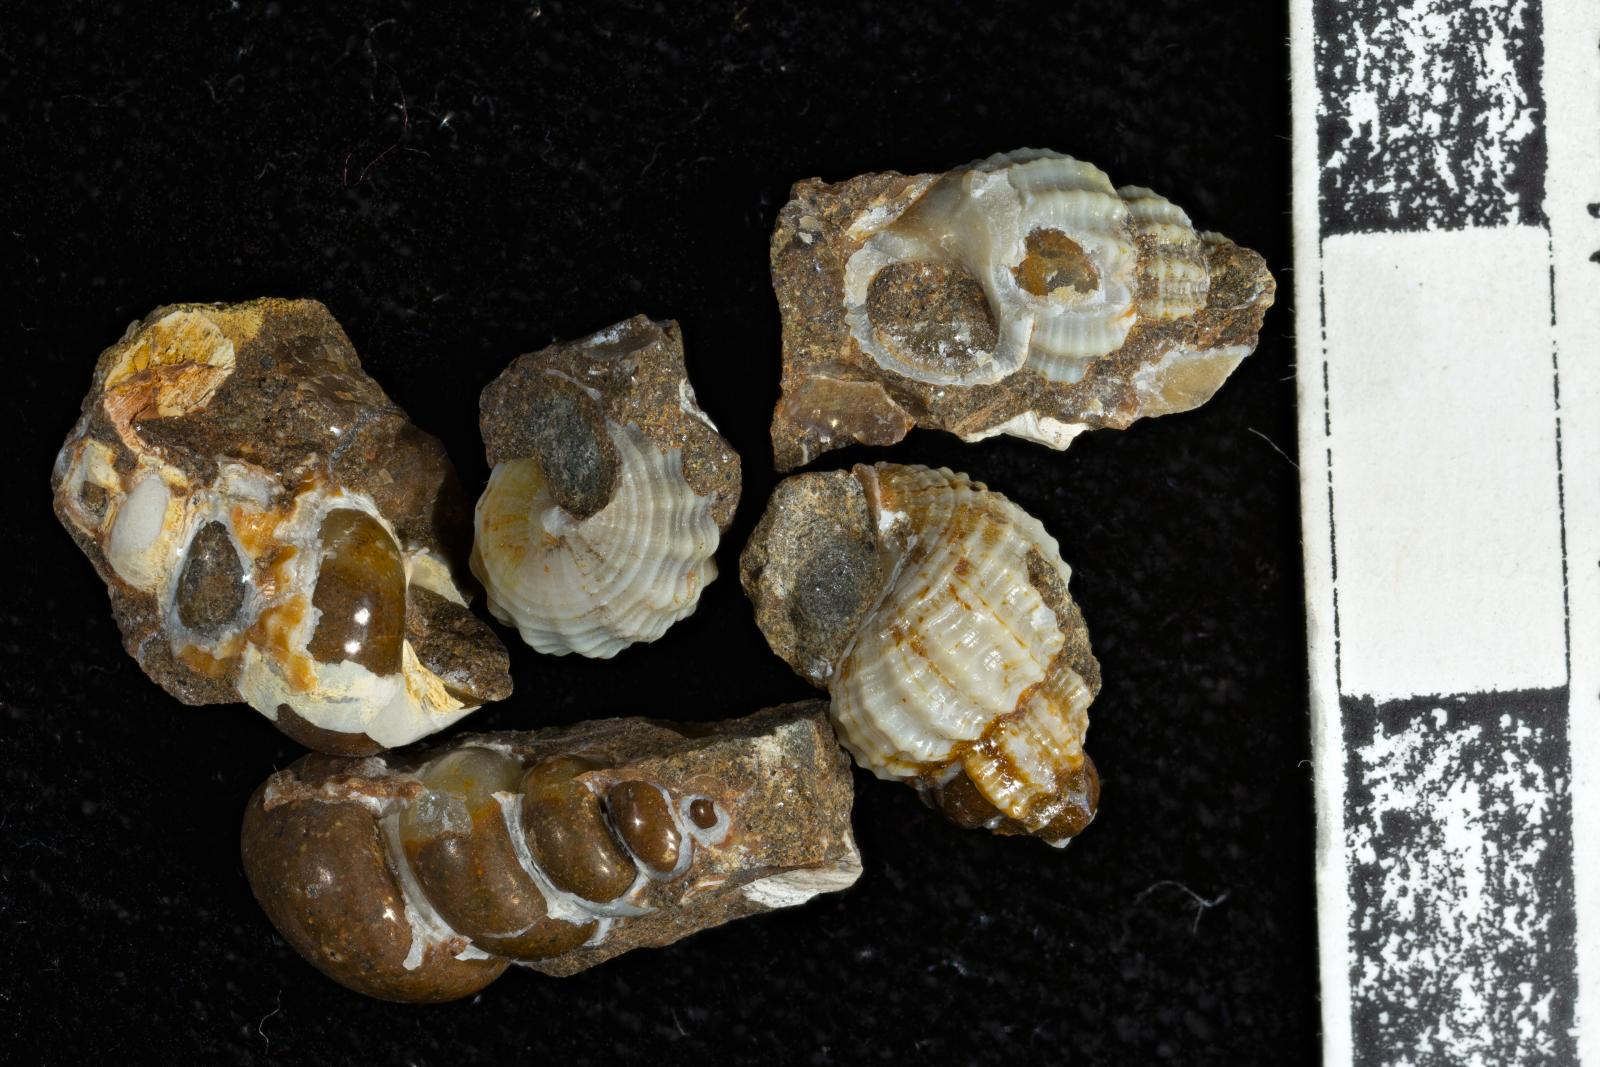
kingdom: Animalia
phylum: Mollusca
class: Gastropoda
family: Epitoniidae
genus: Belliscala
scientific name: Belliscala petra
